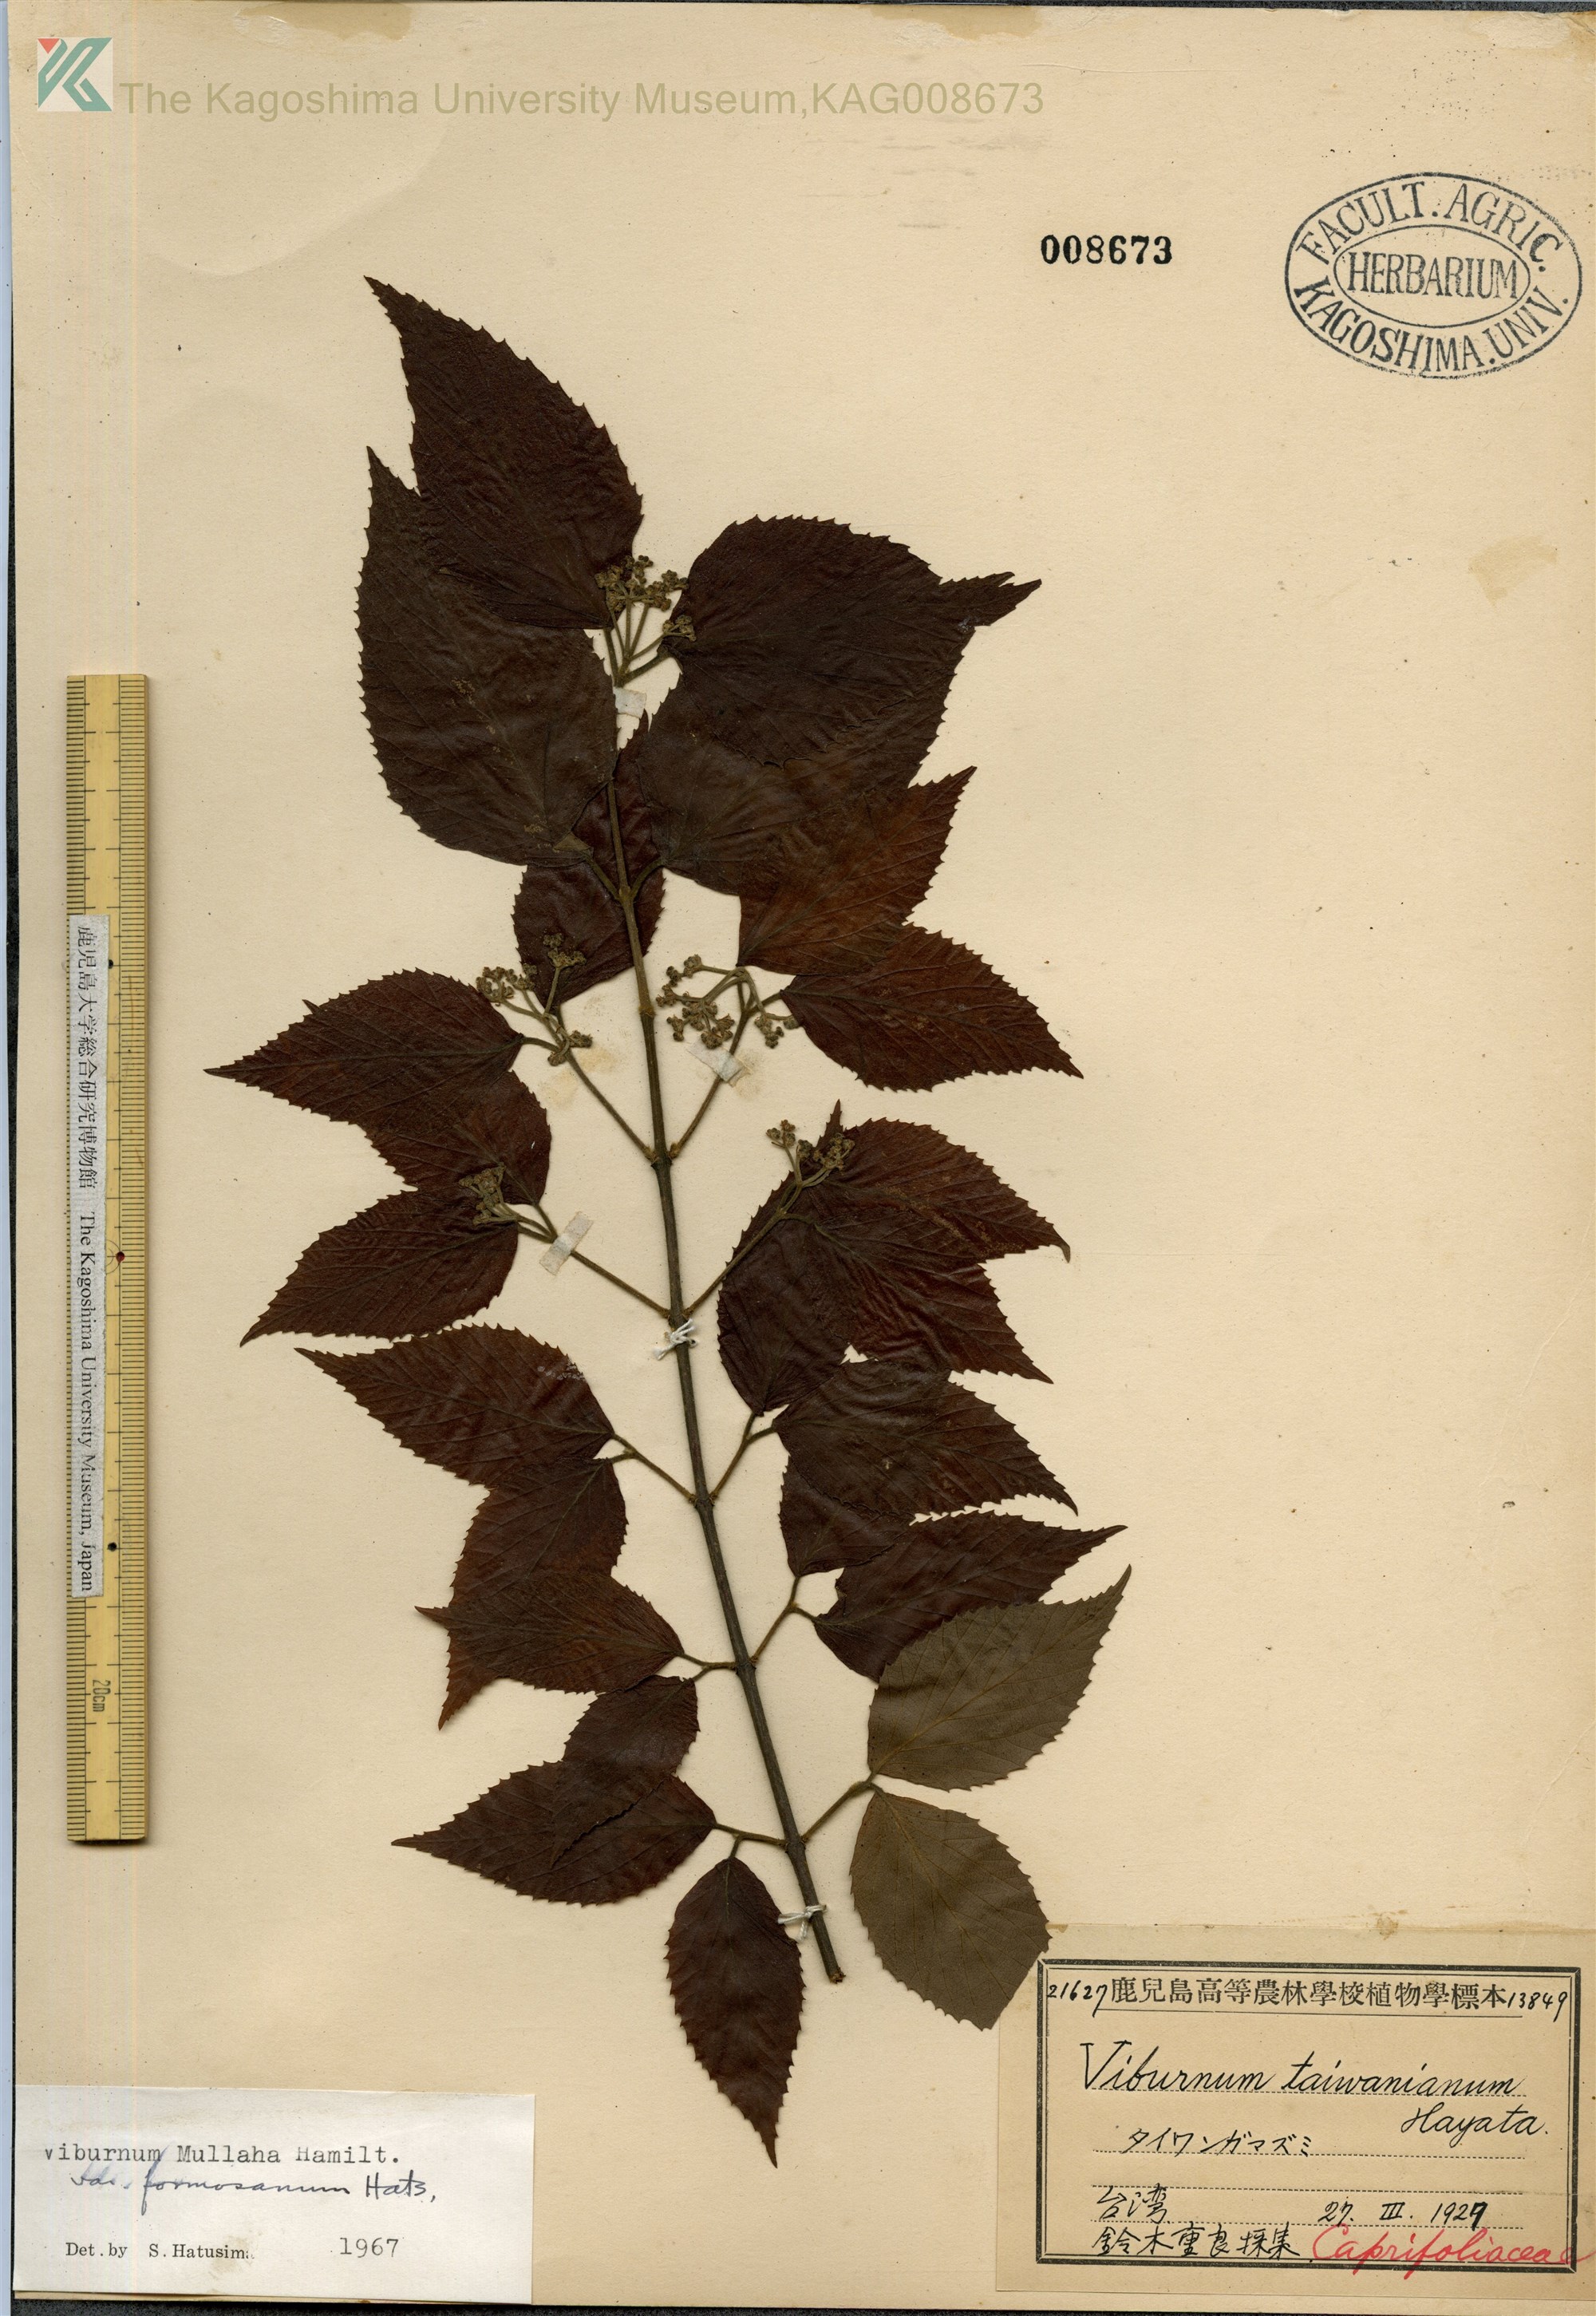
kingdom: Plantae
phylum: Tracheophyta
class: Magnoliopsida
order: Dipsacales
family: Viburnaceae
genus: Viburnum
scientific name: Viburnum mullaha
